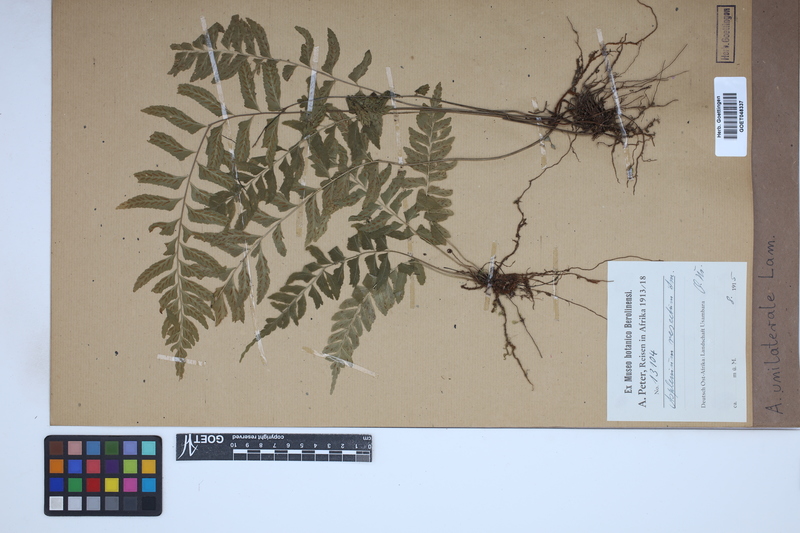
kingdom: Plantae
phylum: Tracheophyta
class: Polypodiopsida
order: Polypodiales
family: Aspleniaceae
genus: Hymenasplenium
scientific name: Hymenasplenium unilaterale
